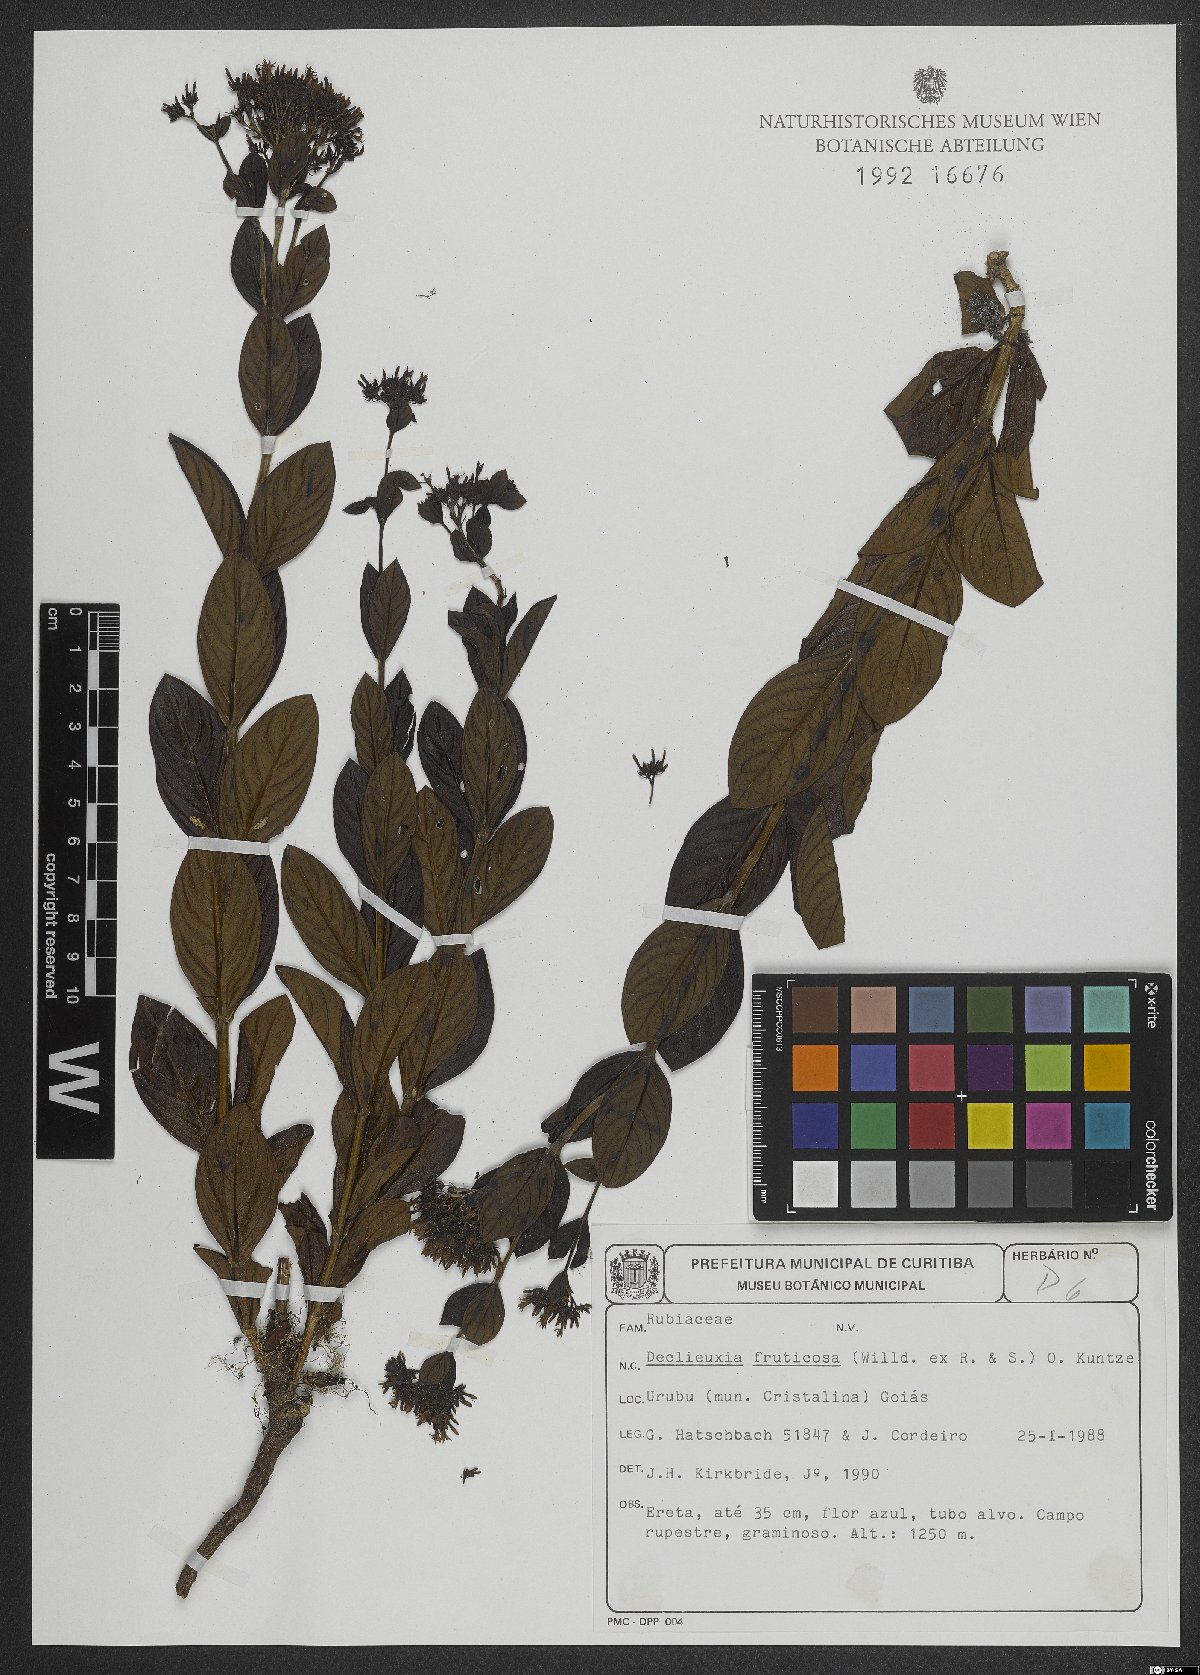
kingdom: Plantae
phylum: Tracheophyta
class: Magnoliopsida
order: Gentianales
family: Rubiaceae
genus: Declieuxia
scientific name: Declieuxia fruticosa
